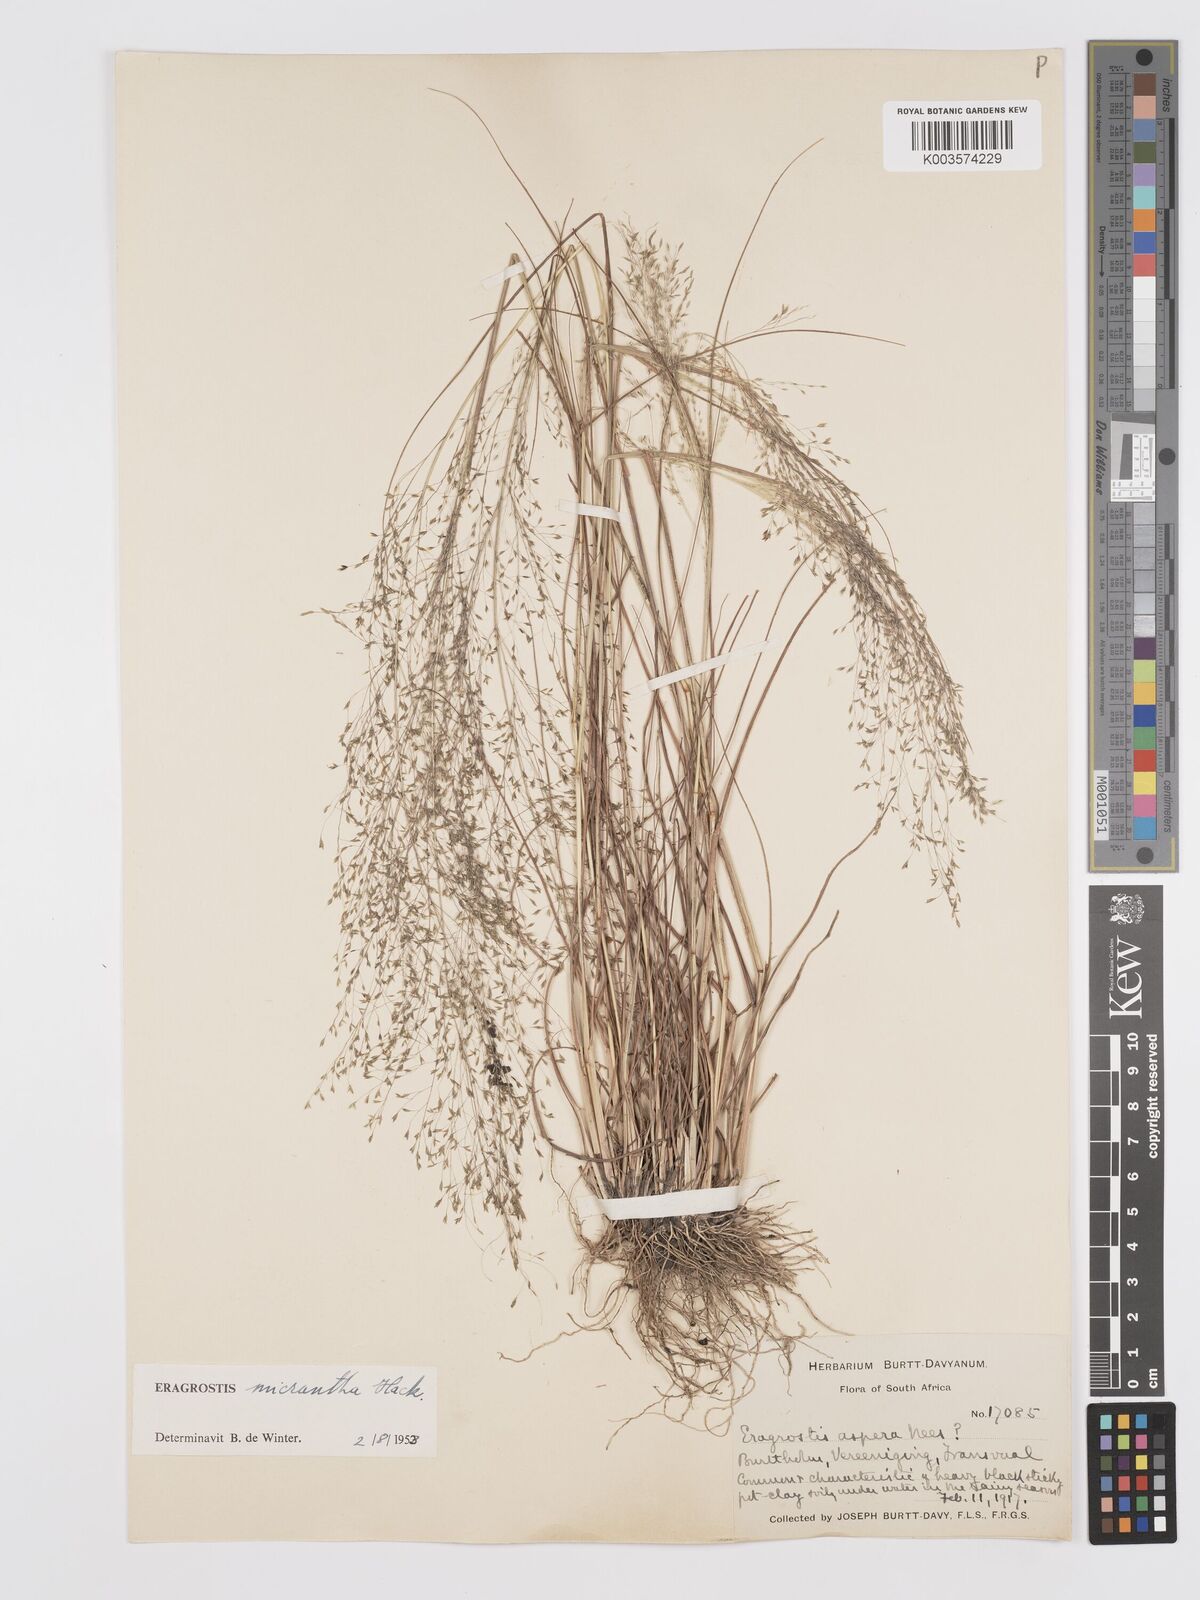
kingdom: Plantae
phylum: Tracheophyta
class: Liliopsida
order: Poales
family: Poaceae
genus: Eragrostis
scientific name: Eragrostis micrantha
